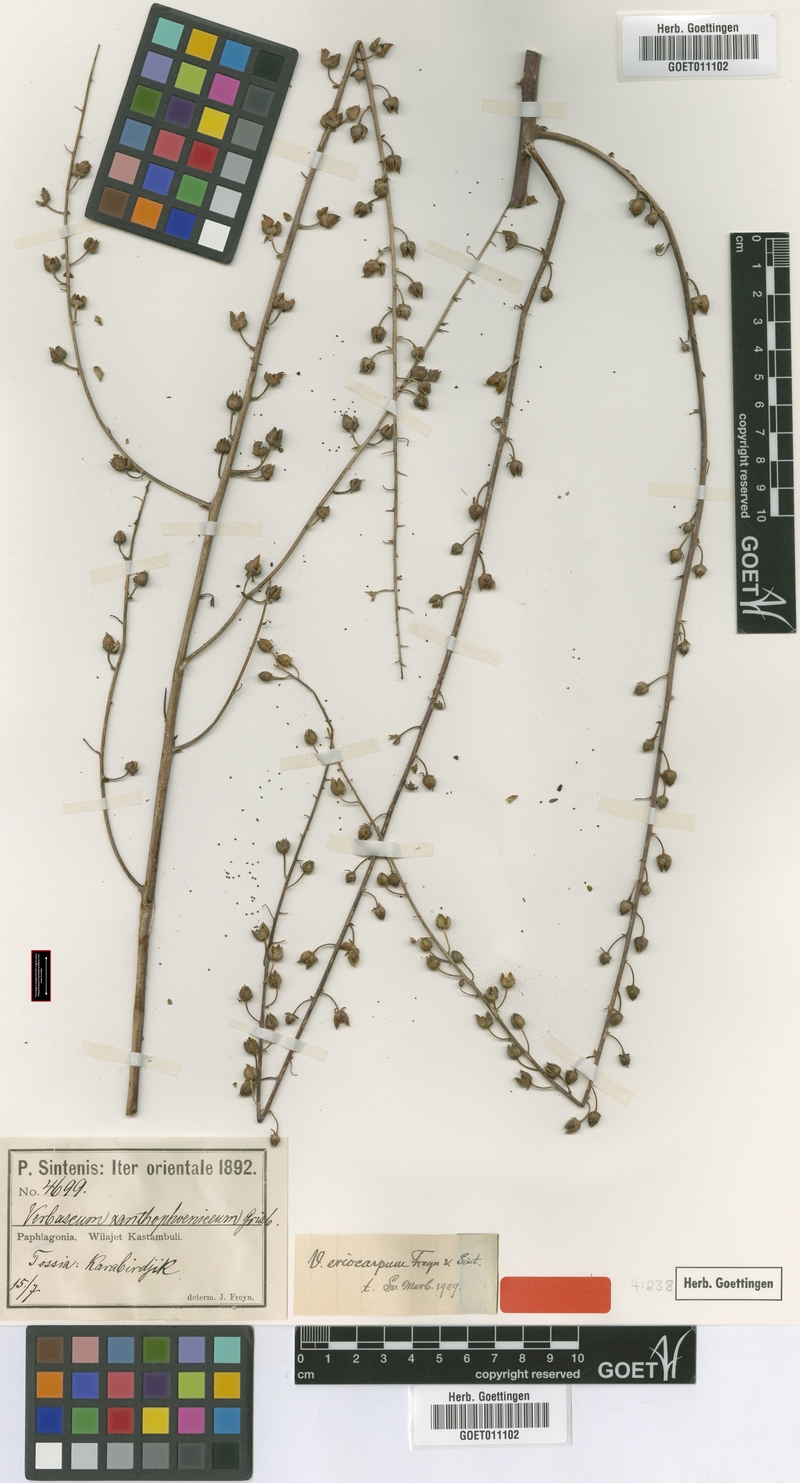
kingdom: Plantae
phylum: Tracheophyta
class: Magnoliopsida
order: Lamiales
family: Scrophulariaceae
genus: Verbascum
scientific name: Verbascum eriocarpum
